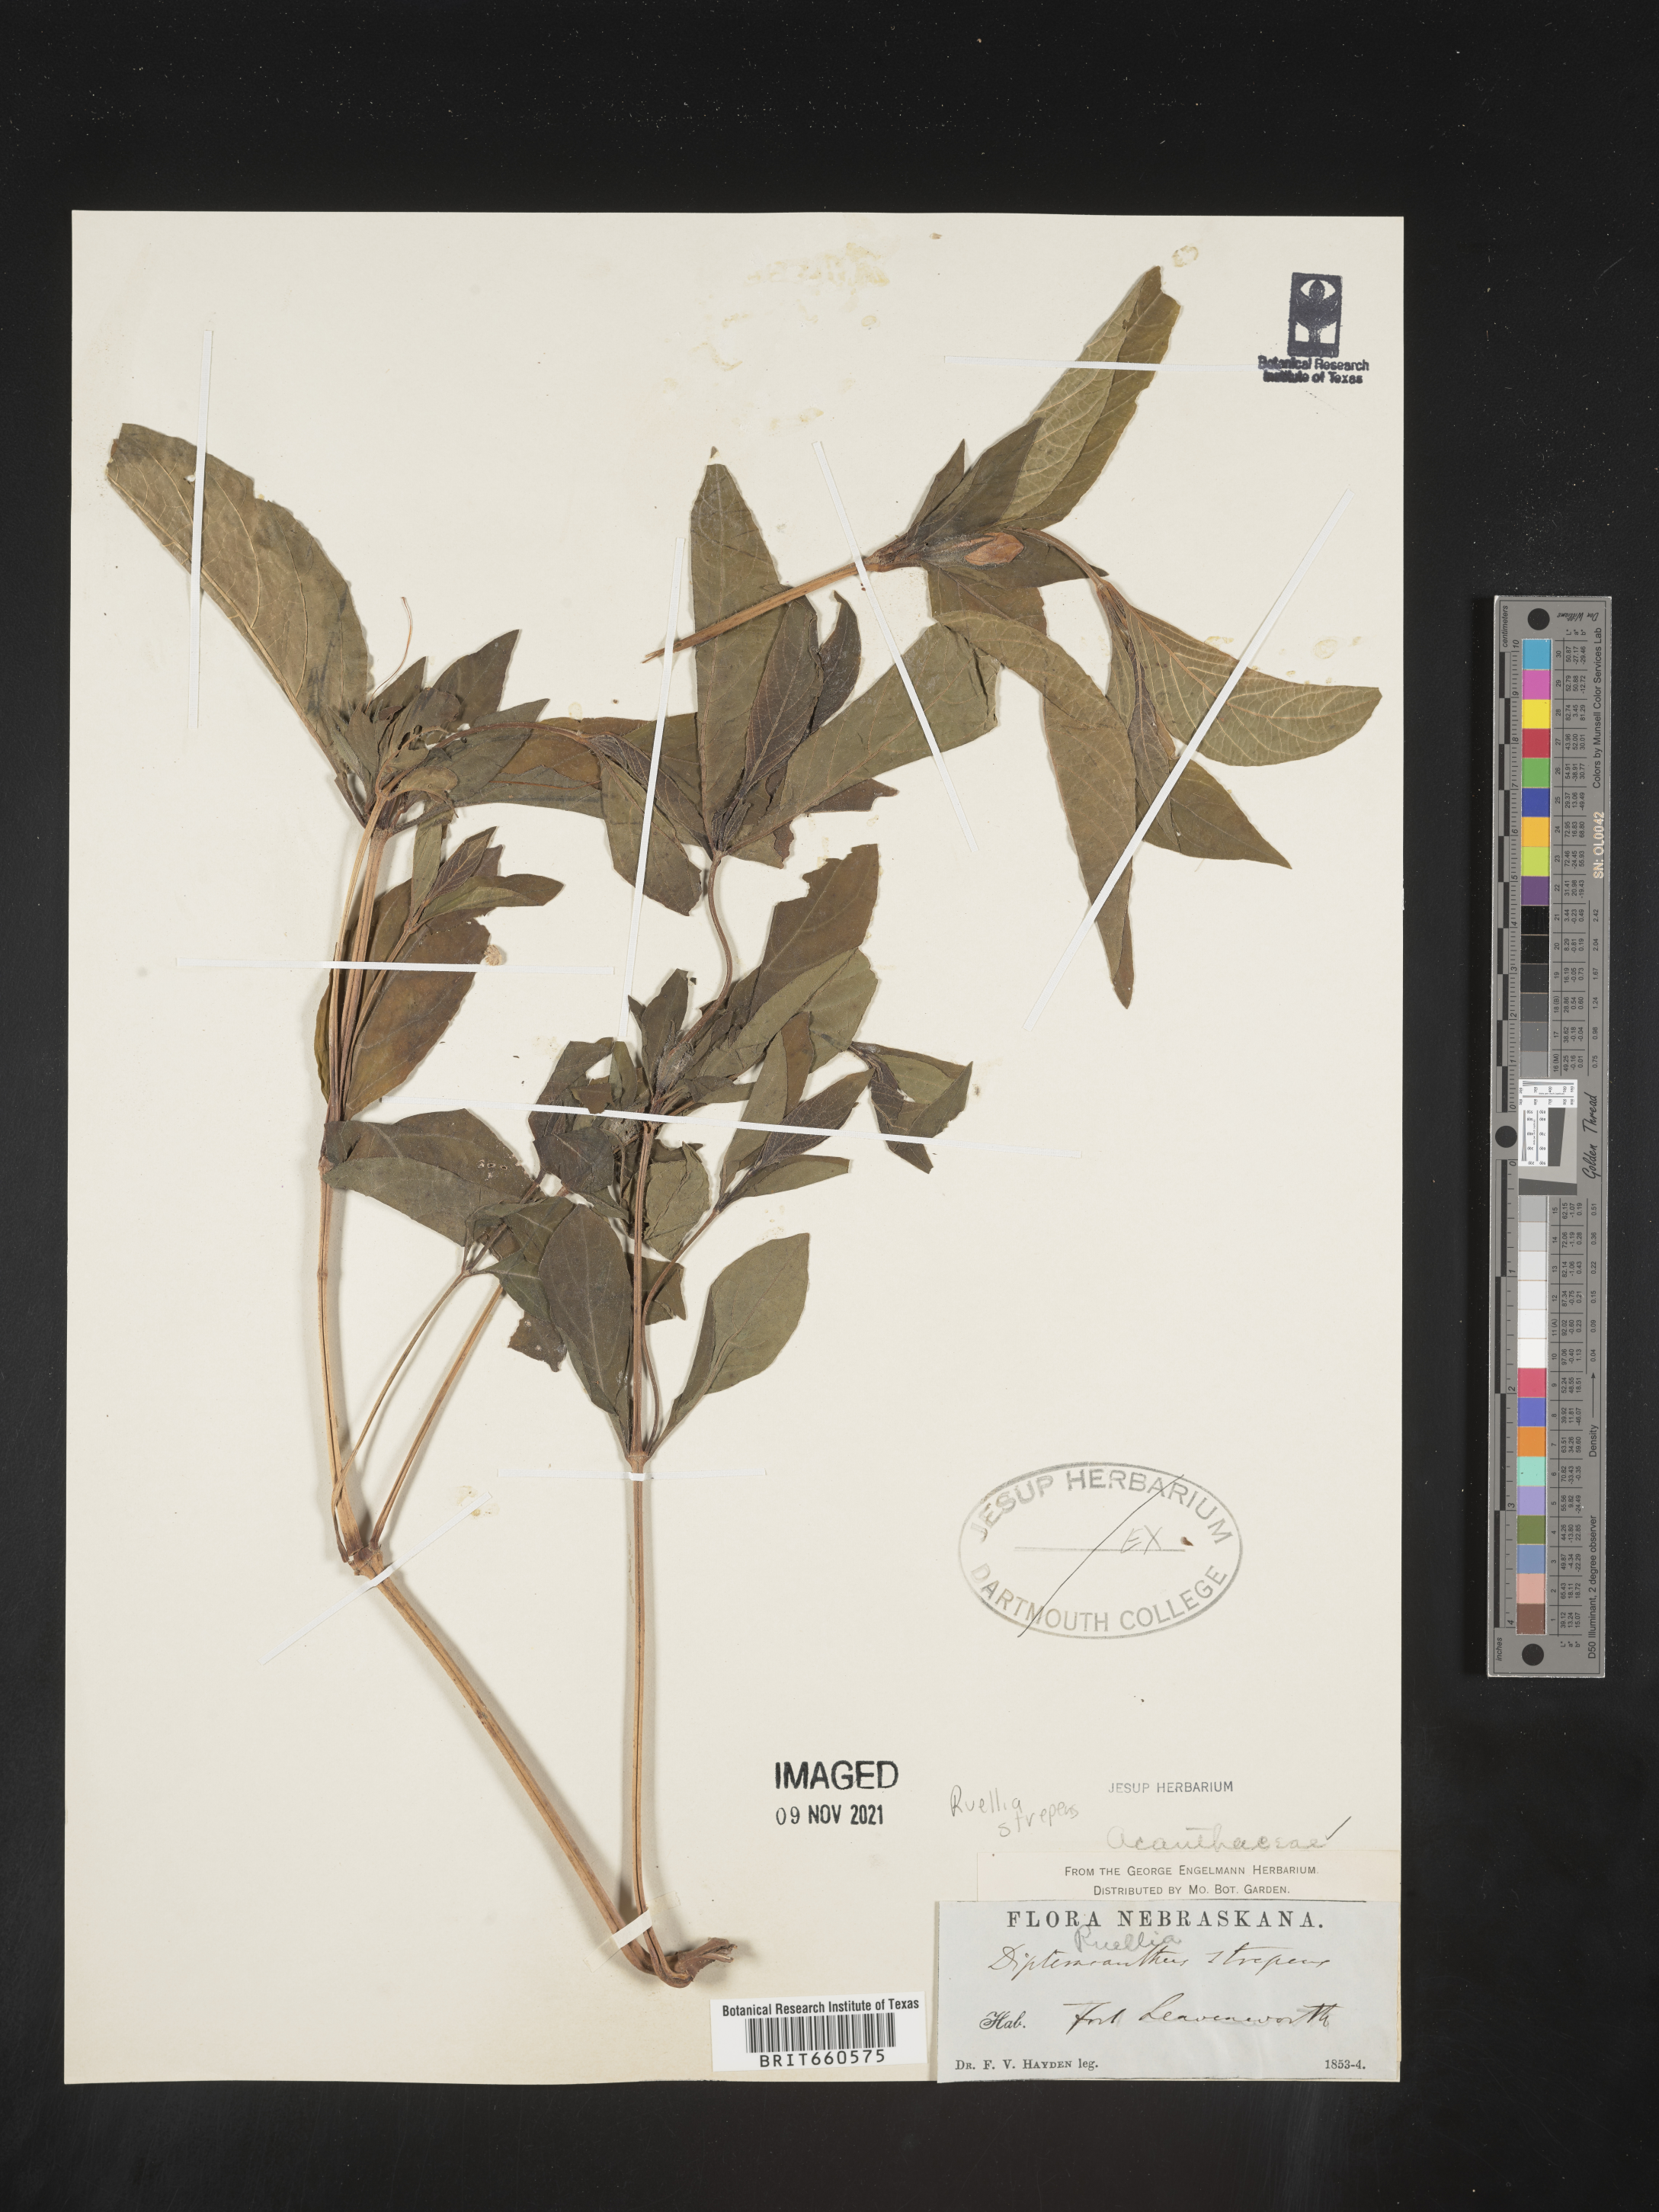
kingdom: Plantae
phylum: Tracheophyta
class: Magnoliopsida
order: Lamiales
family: Acanthaceae
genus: Ruellia
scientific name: Ruellia strepens
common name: Limestone wild petunia
